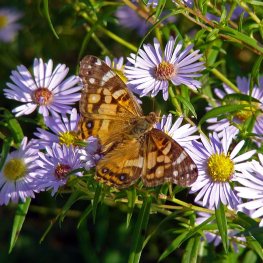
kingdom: Animalia
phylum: Arthropoda
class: Insecta
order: Lepidoptera
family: Nymphalidae
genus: Vanessa
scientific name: Vanessa virginiensis
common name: American Lady
